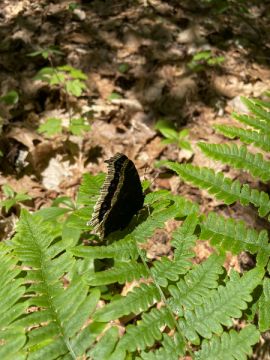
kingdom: Animalia
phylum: Arthropoda
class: Insecta
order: Lepidoptera
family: Nymphalidae
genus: Nymphalis
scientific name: Nymphalis antiopa
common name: Mourning Cloak
